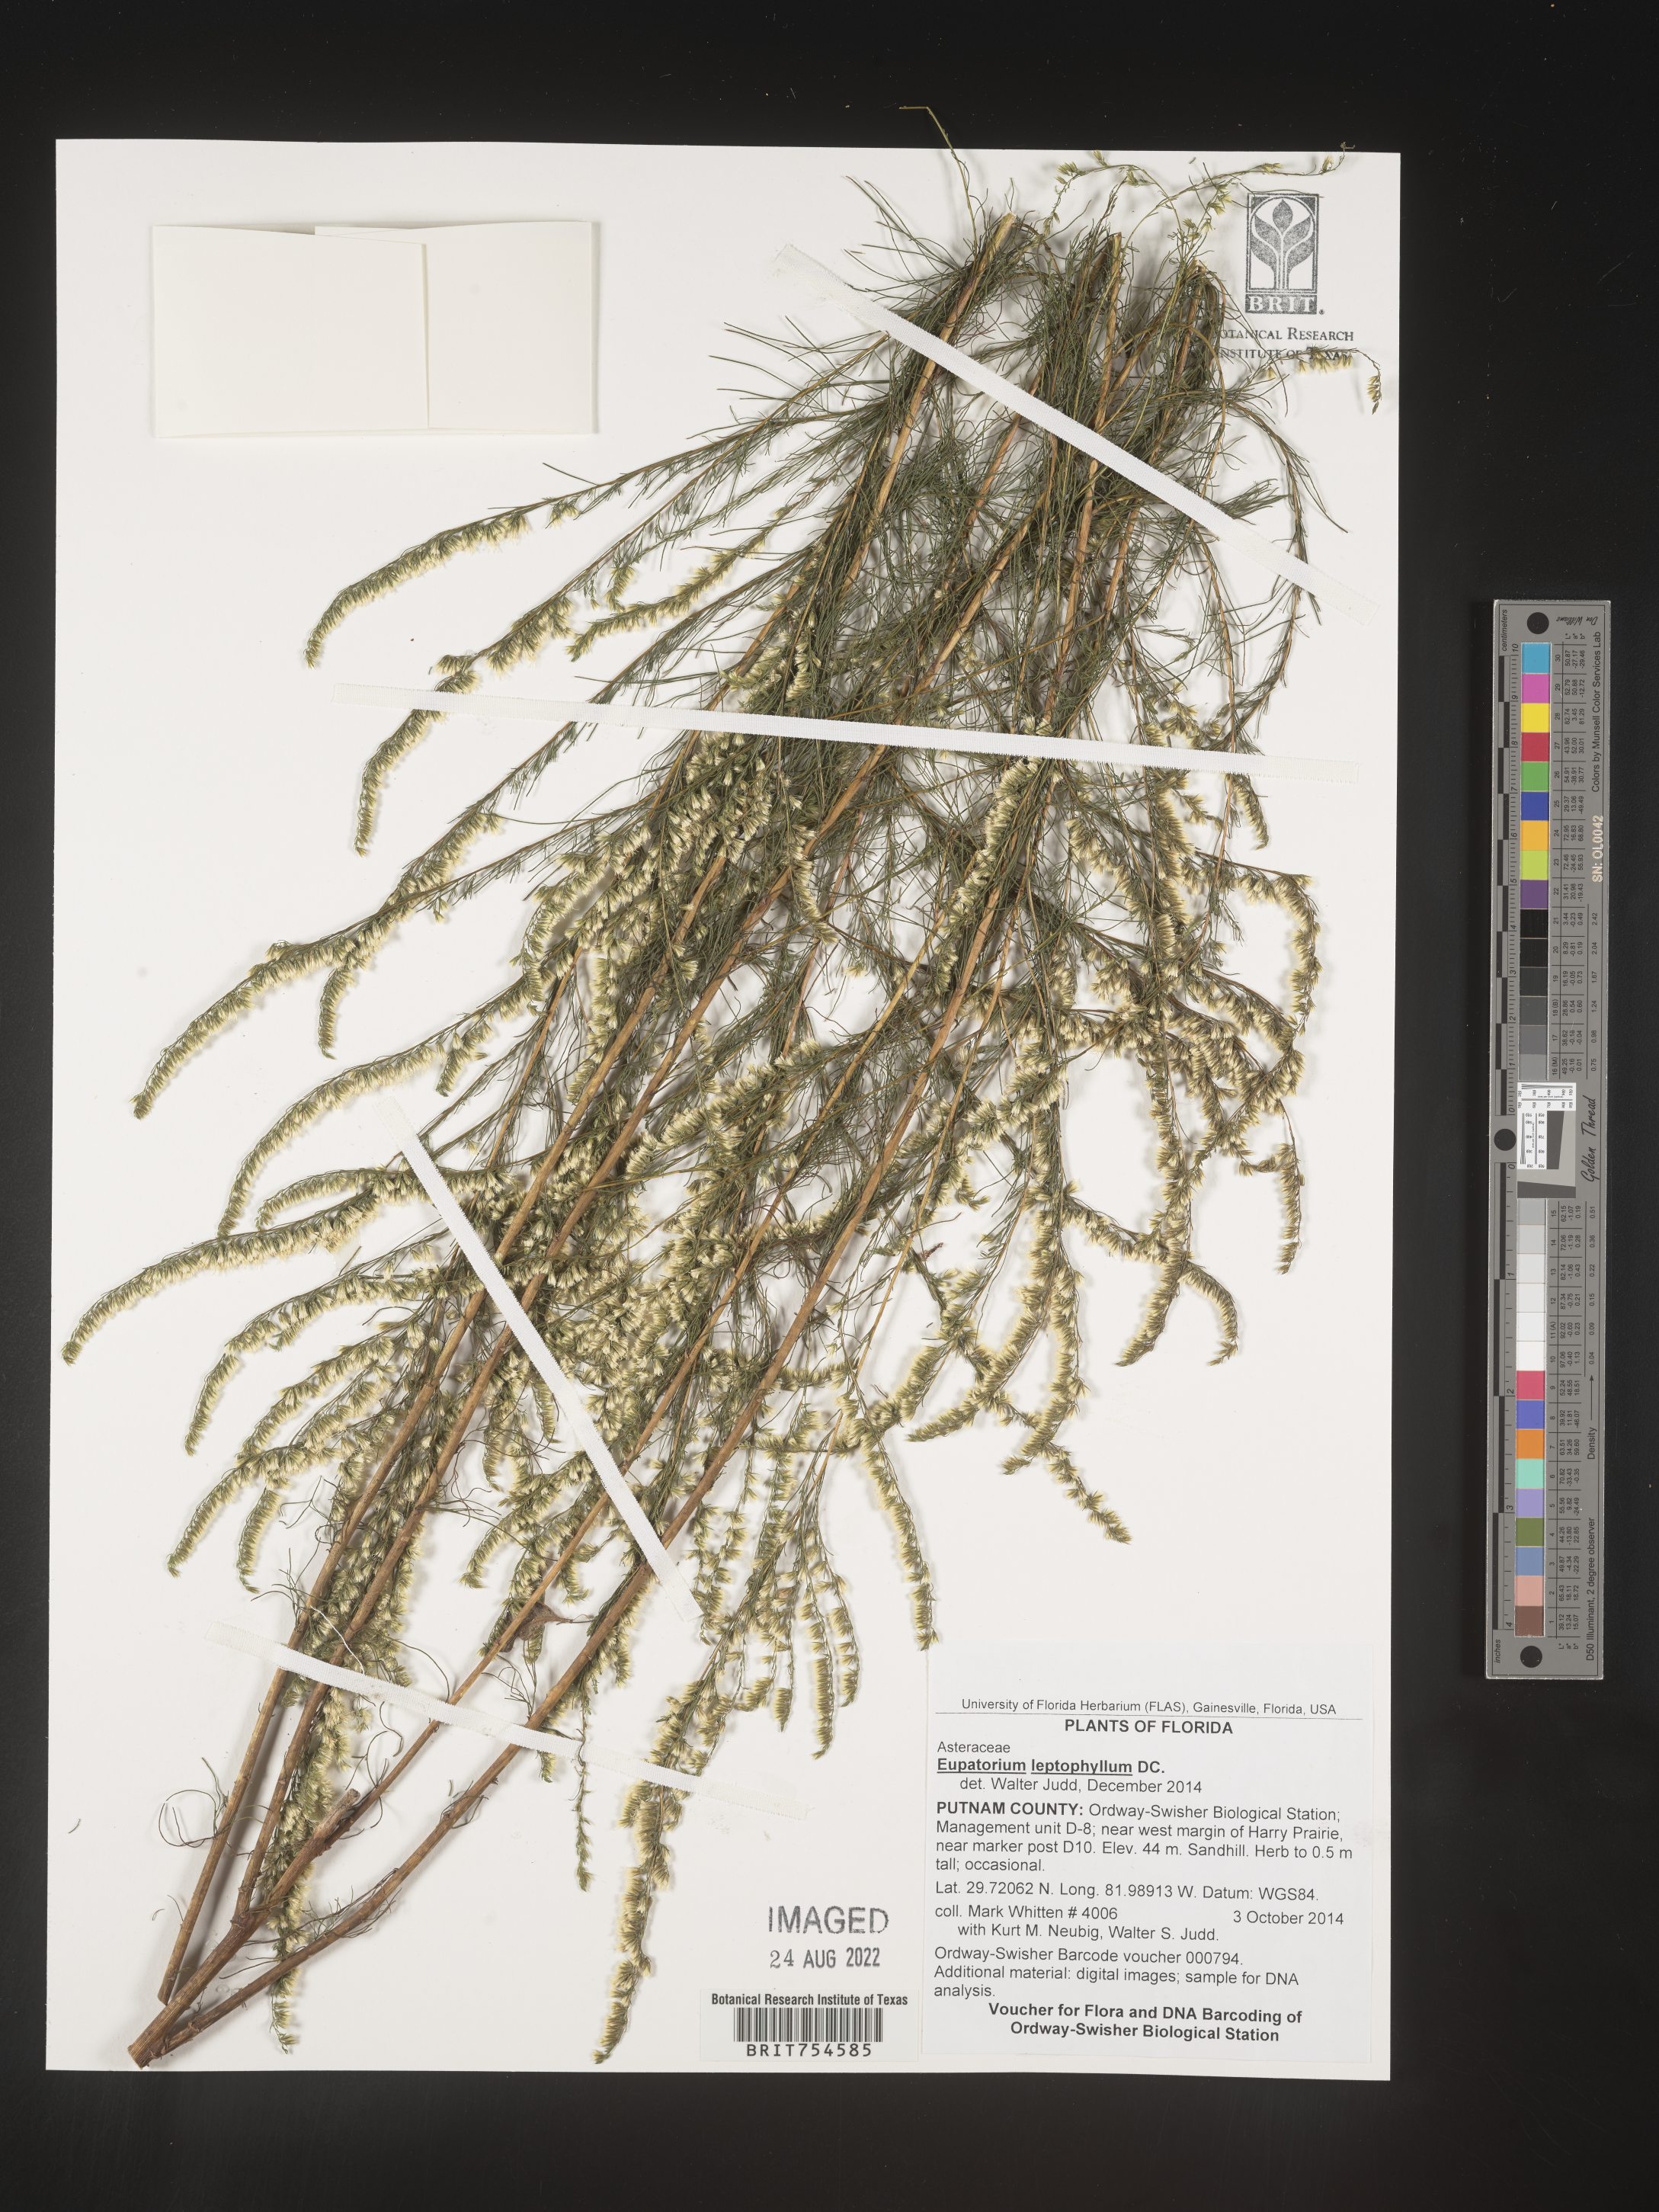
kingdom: Plantae
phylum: Tracheophyta
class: Magnoliopsida
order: Asterales
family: Asteraceae
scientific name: Asteraceae
